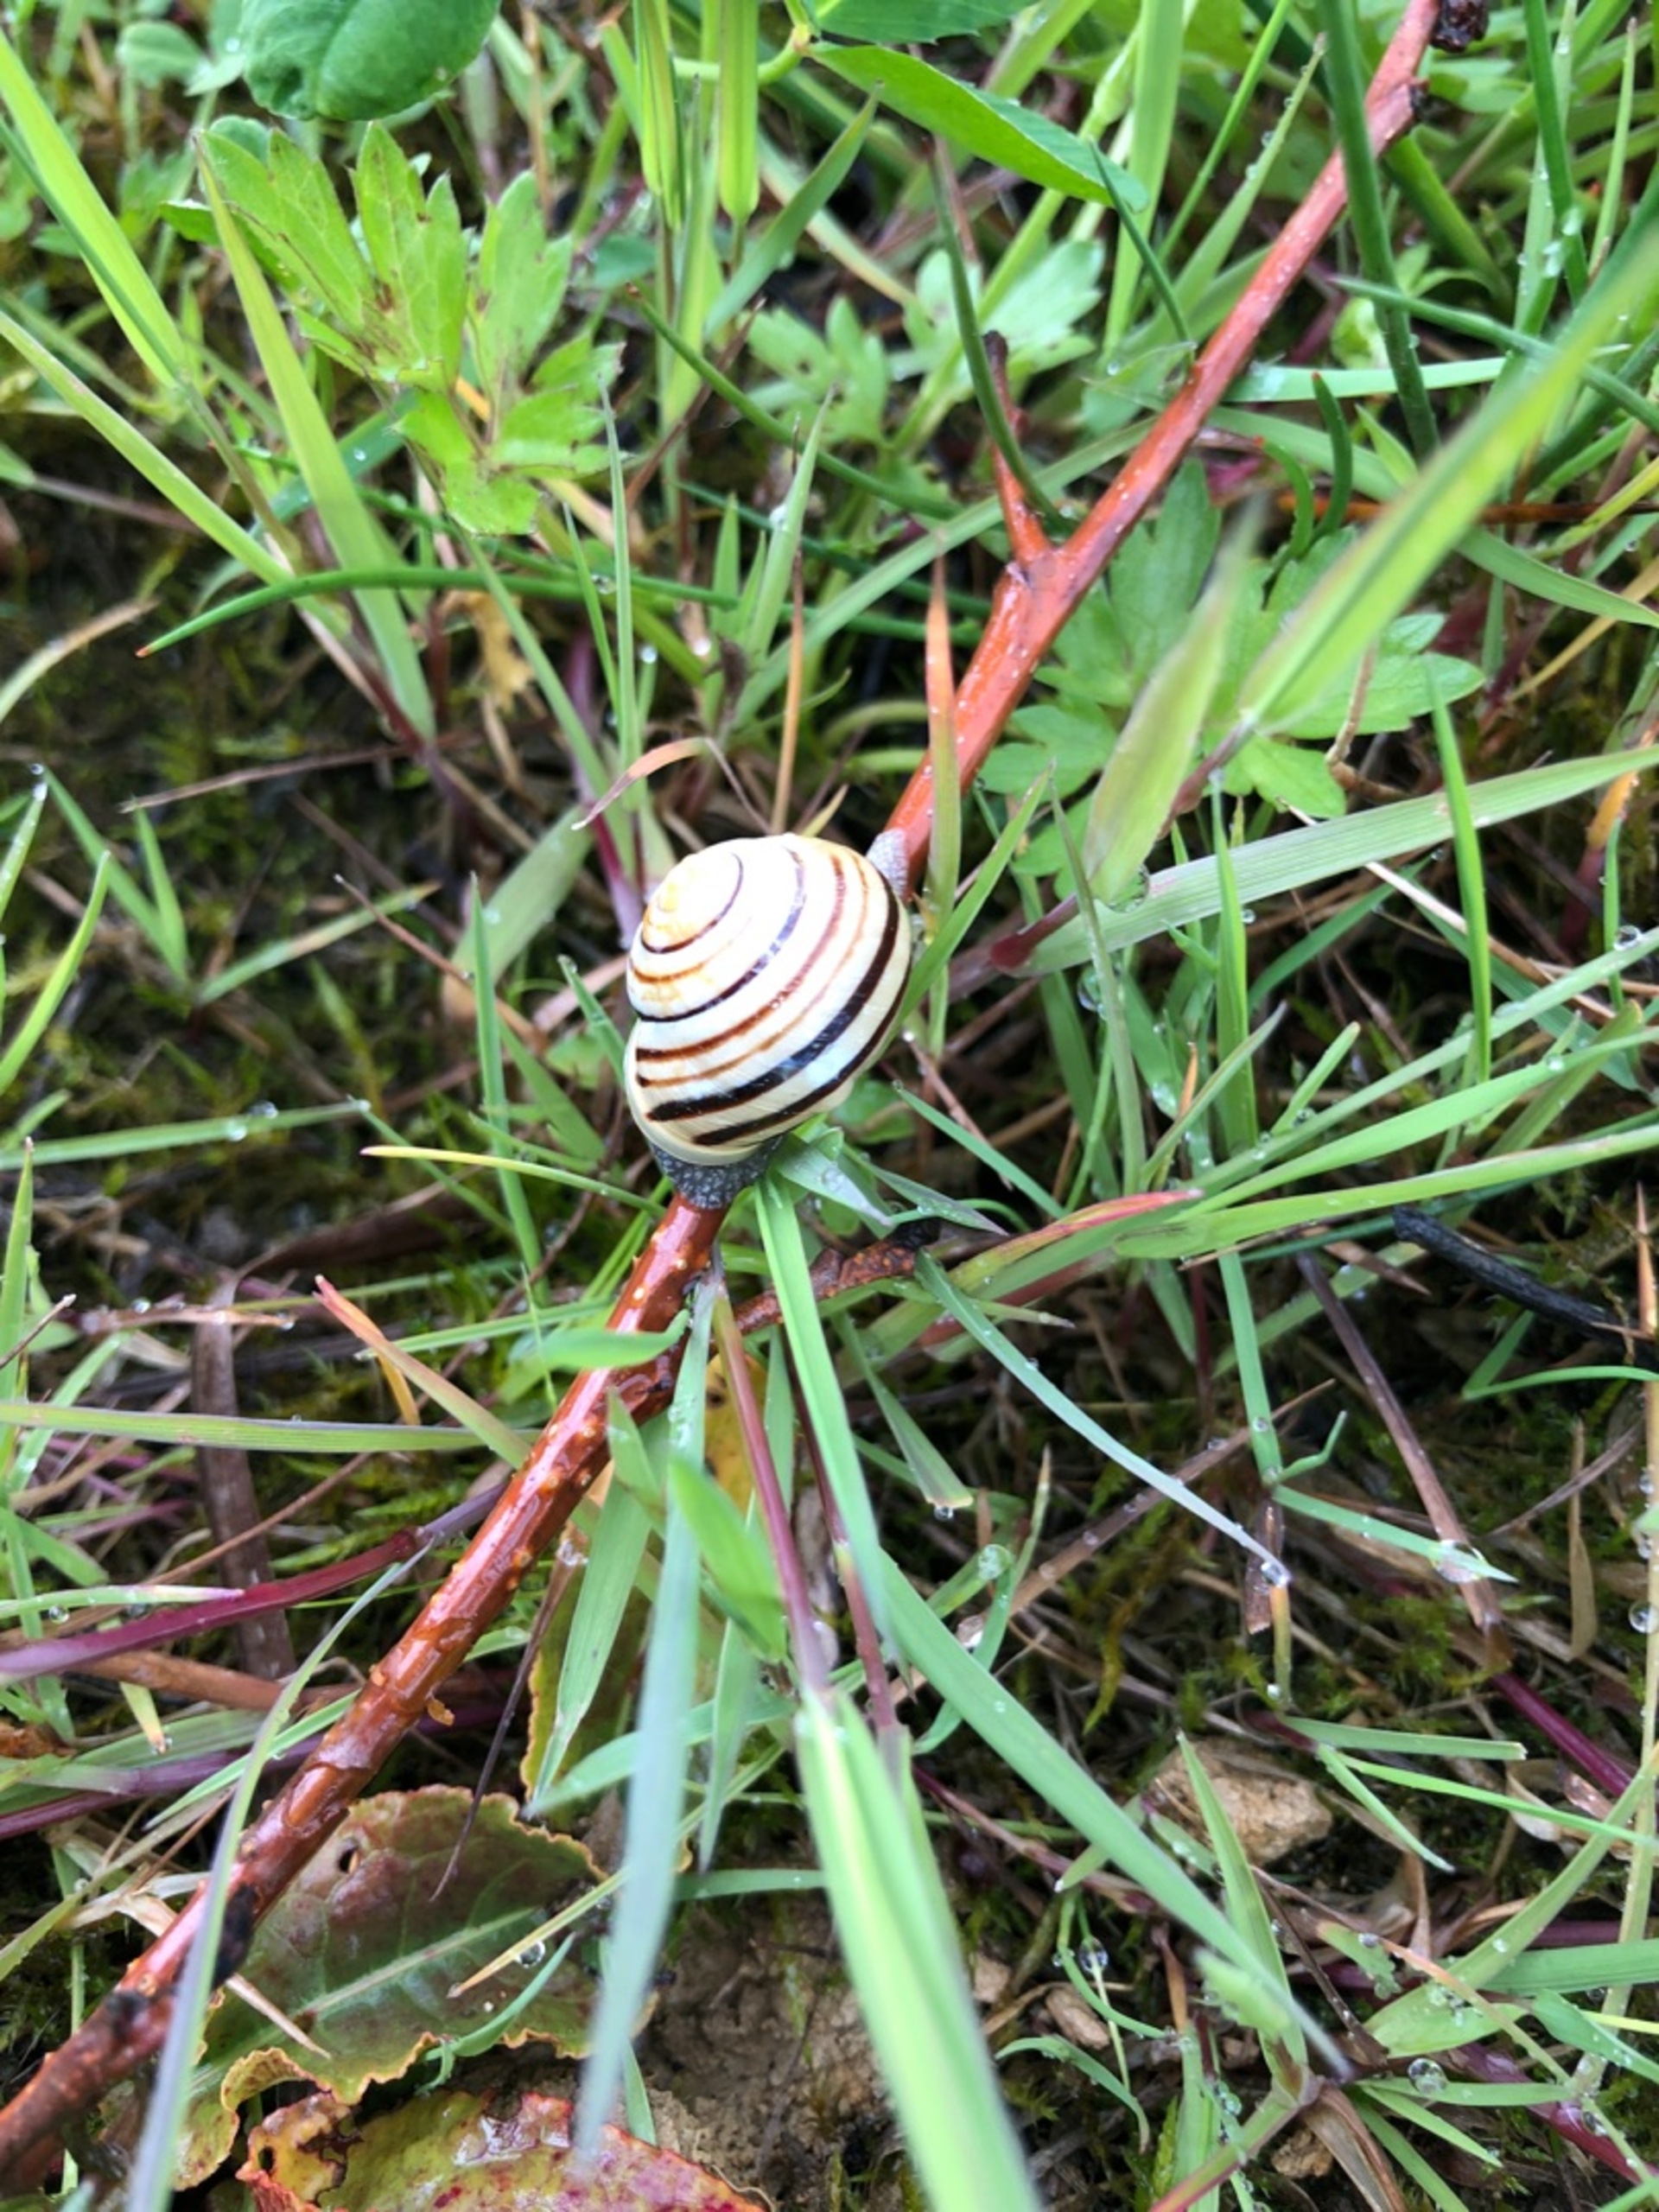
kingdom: Animalia
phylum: Mollusca
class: Gastropoda
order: Stylommatophora
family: Helicidae
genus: Cepaea
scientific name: Cepaea hortensis
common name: Havesnegl
